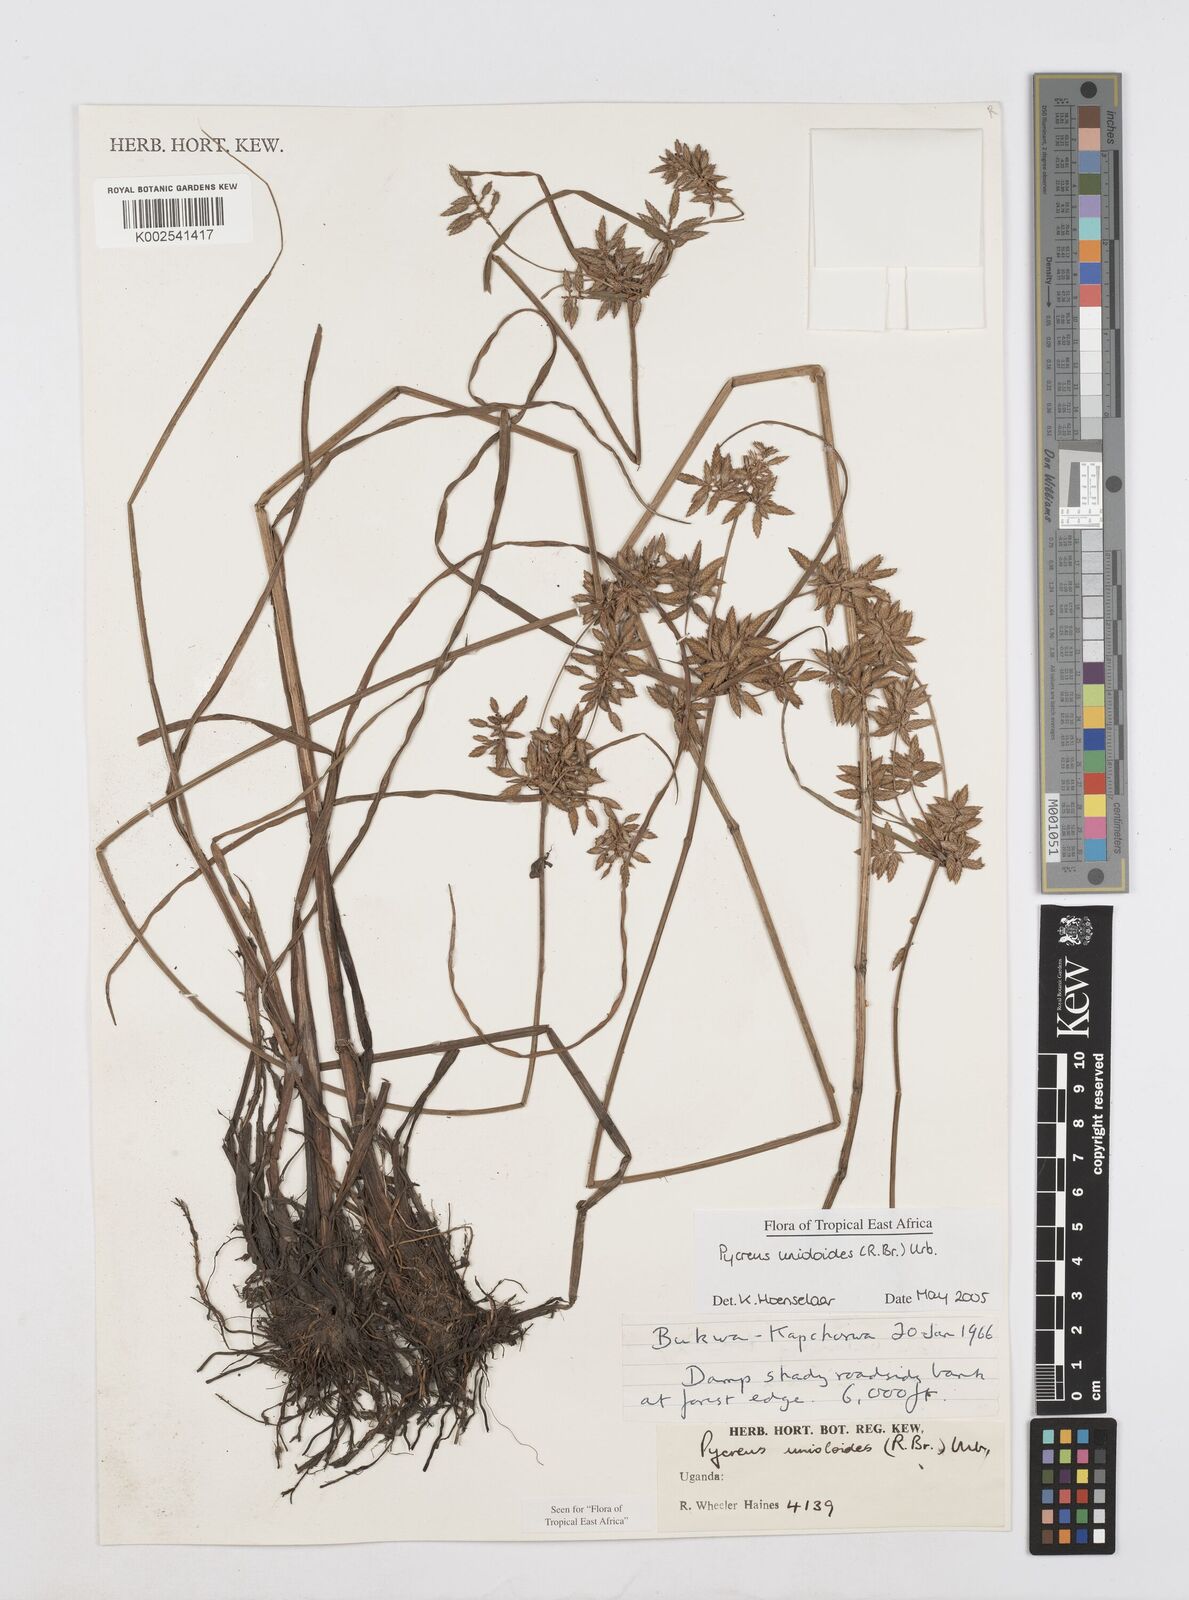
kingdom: Plantae
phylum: Tracheophyta
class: Liliopsida
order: Poales
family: Cyperaceae
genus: Cyperus
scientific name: Cyperus unioloides
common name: Uniola flatsedge
